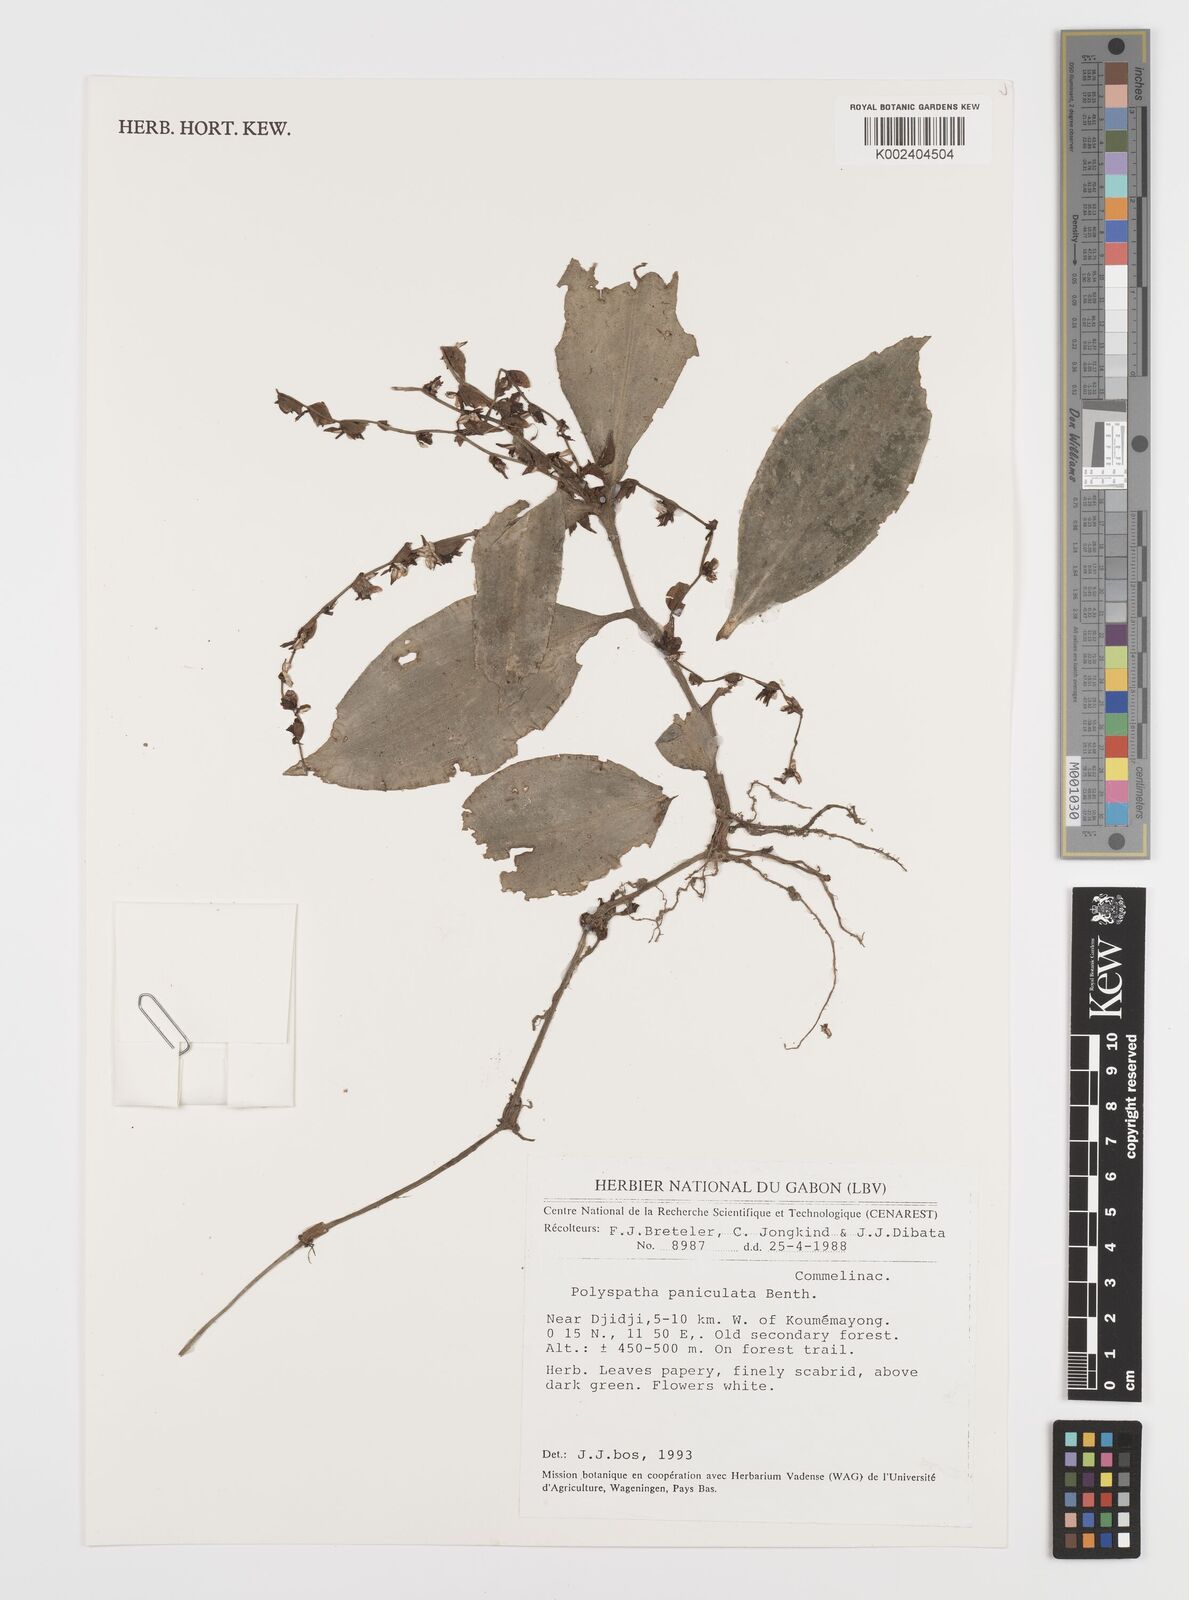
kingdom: Plantae
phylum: Tracheophyta
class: Liliopsida
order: Commelinales
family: Commelinaceae
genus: Polyspatha
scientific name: Polyspatha paniculata
